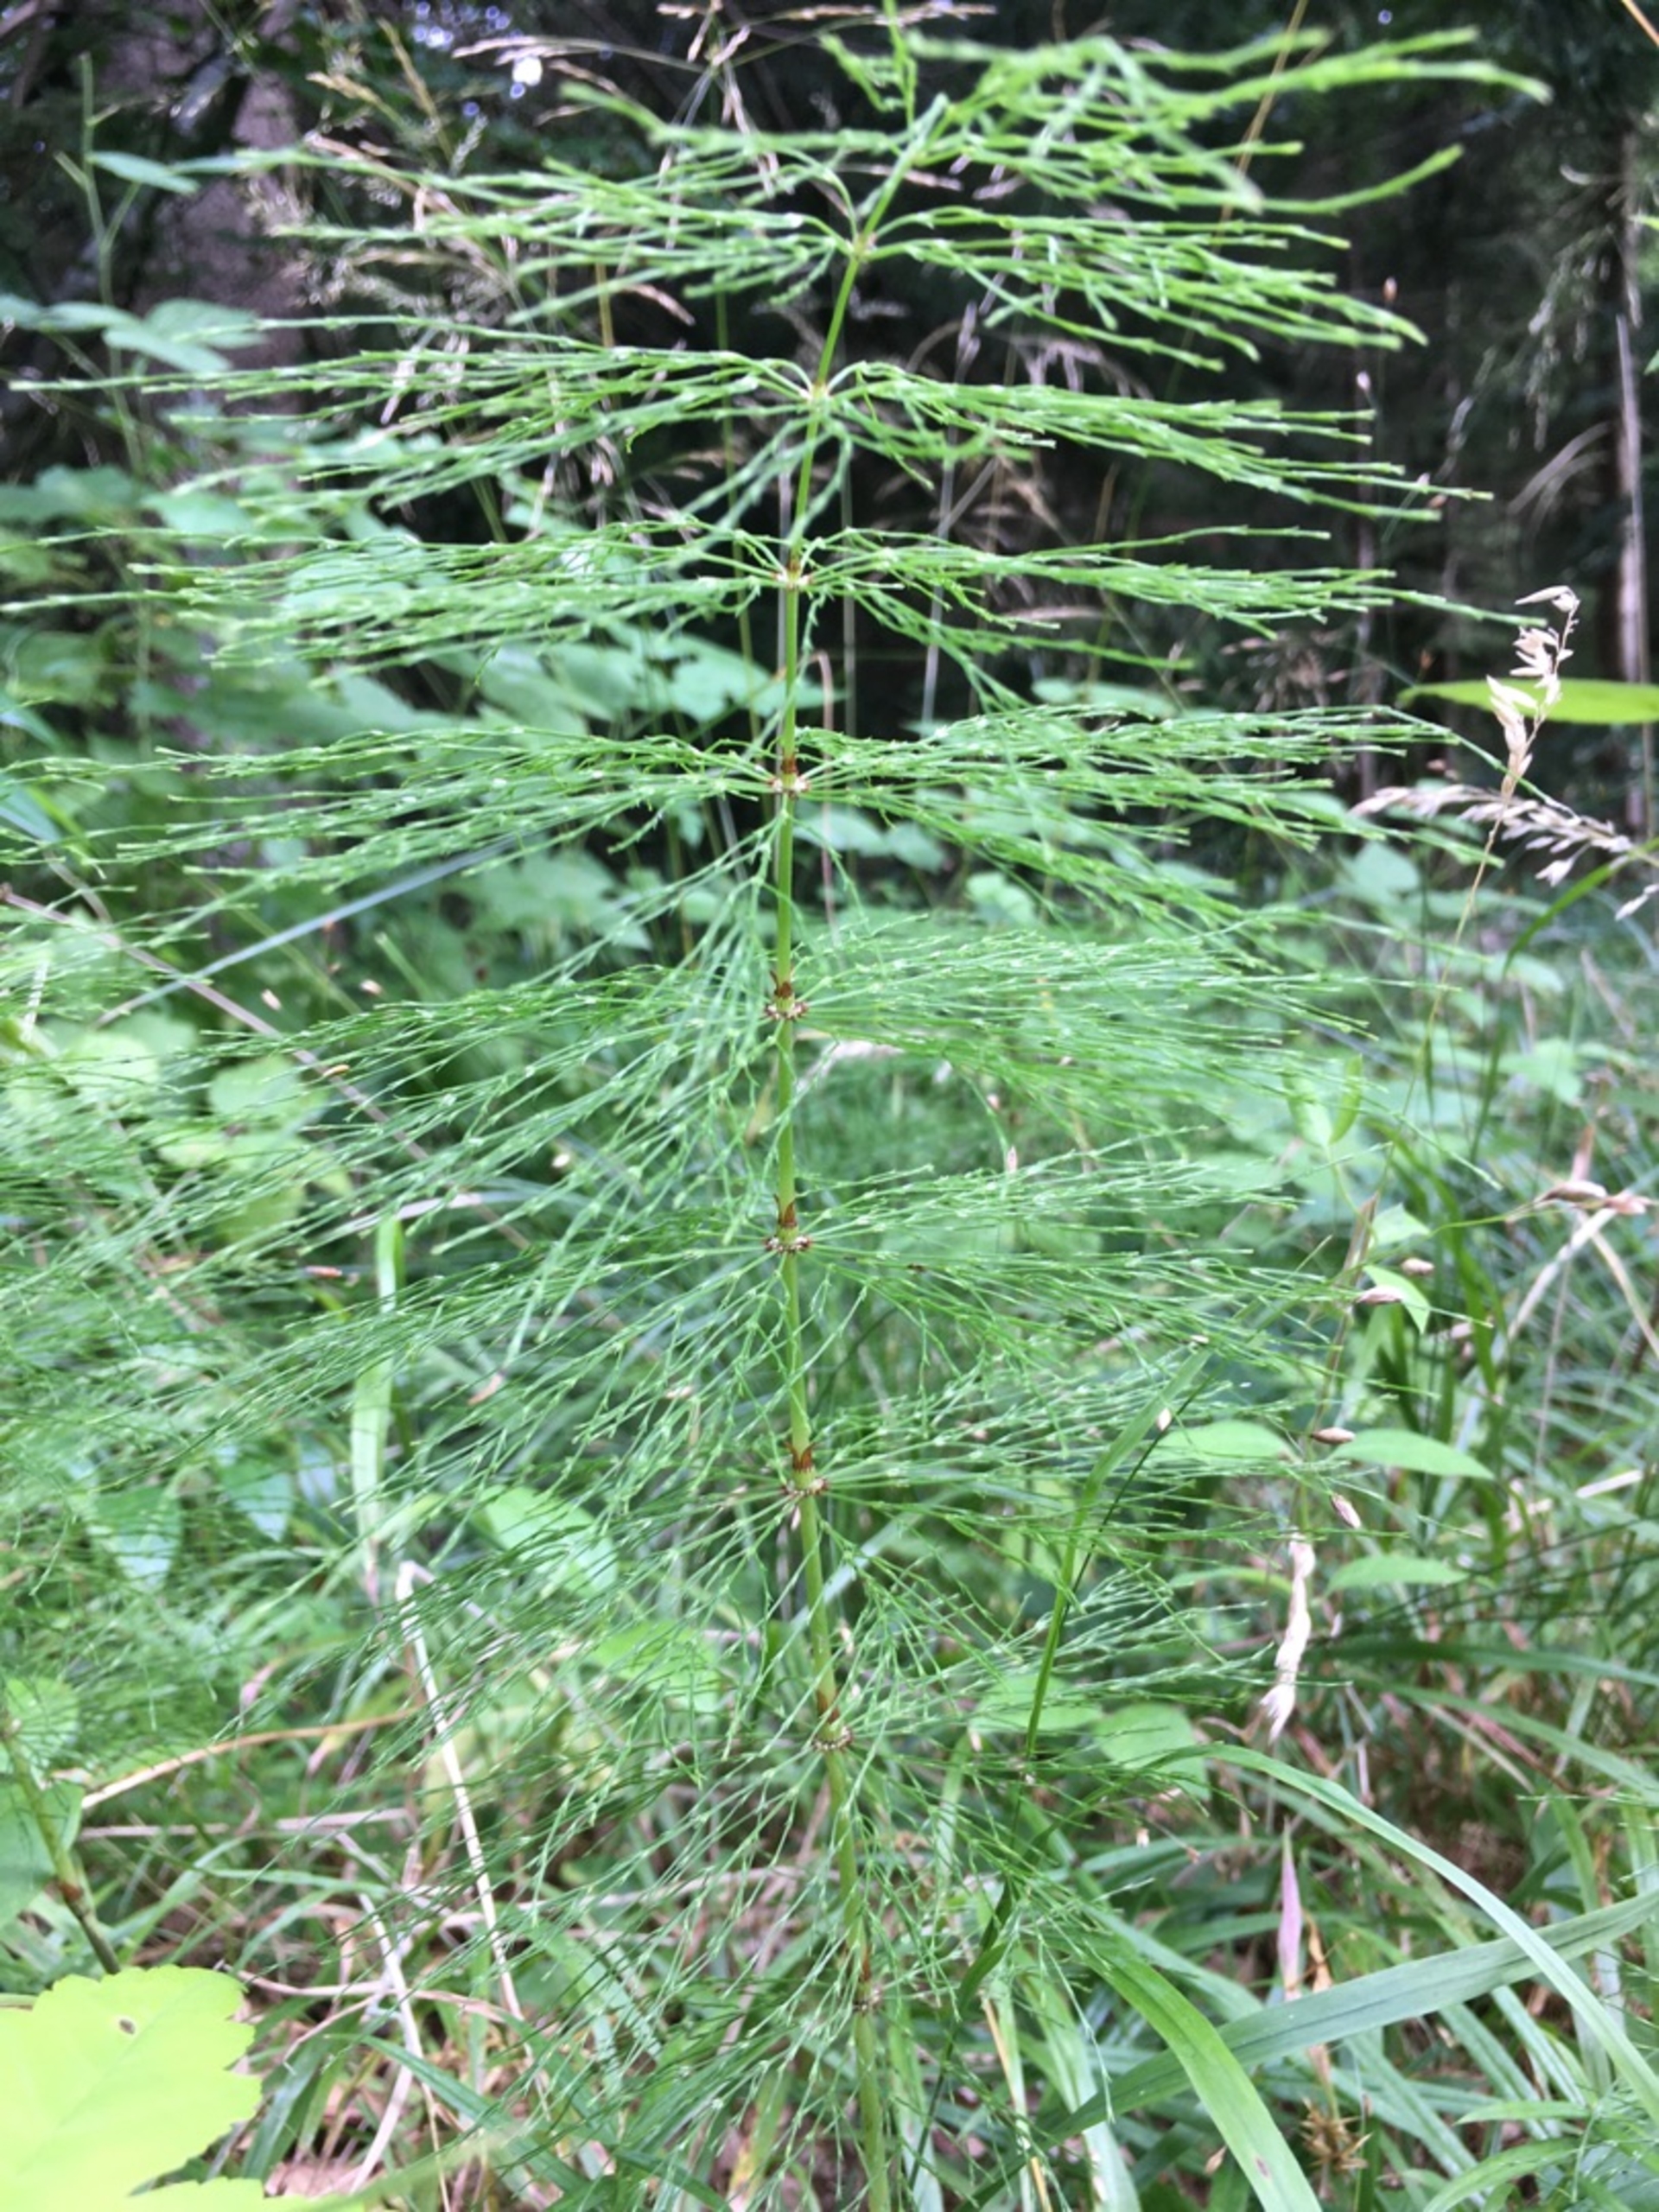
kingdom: Plantae
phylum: Tracheophyta
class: Polypodiopsida
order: Equisetales
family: Equisetaceae
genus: Equisetum
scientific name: Equisetum sylvaticum
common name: Skov-padderok
